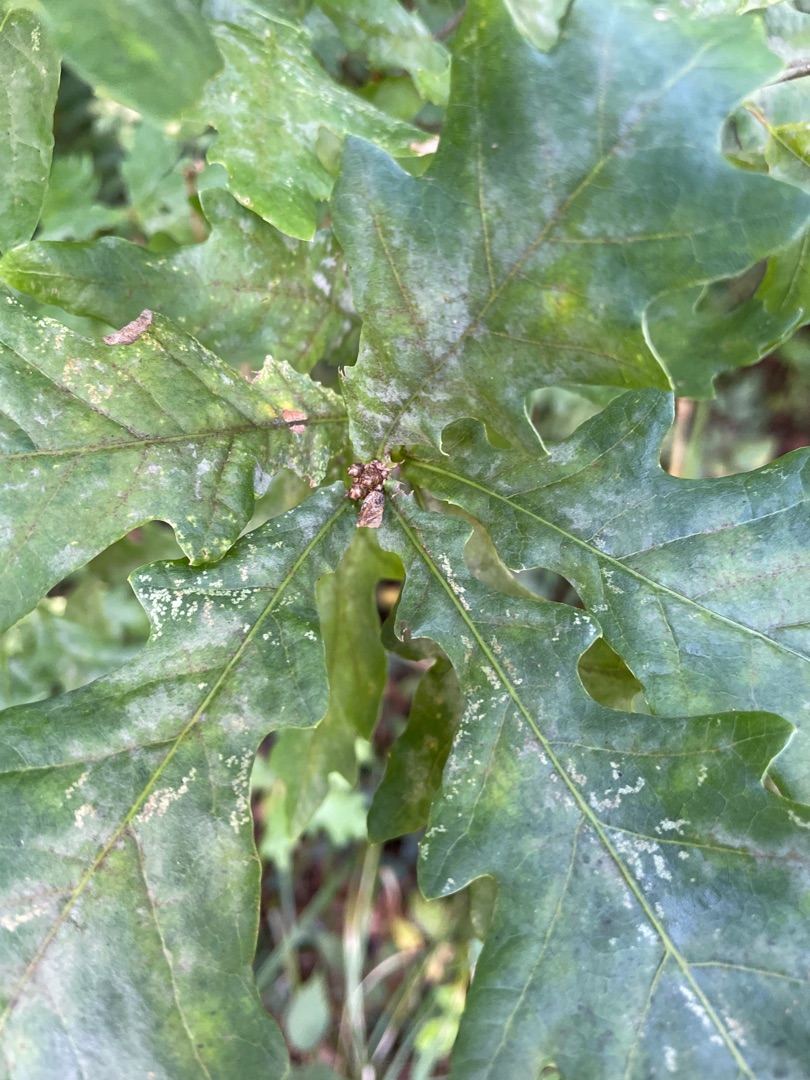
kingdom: Plantae
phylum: Tracheophyta
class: Magnoliopsida
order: Fagales
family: Fagaceae
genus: Quercus
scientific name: Quercus robur
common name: Stilk-eg/almindelig eg
